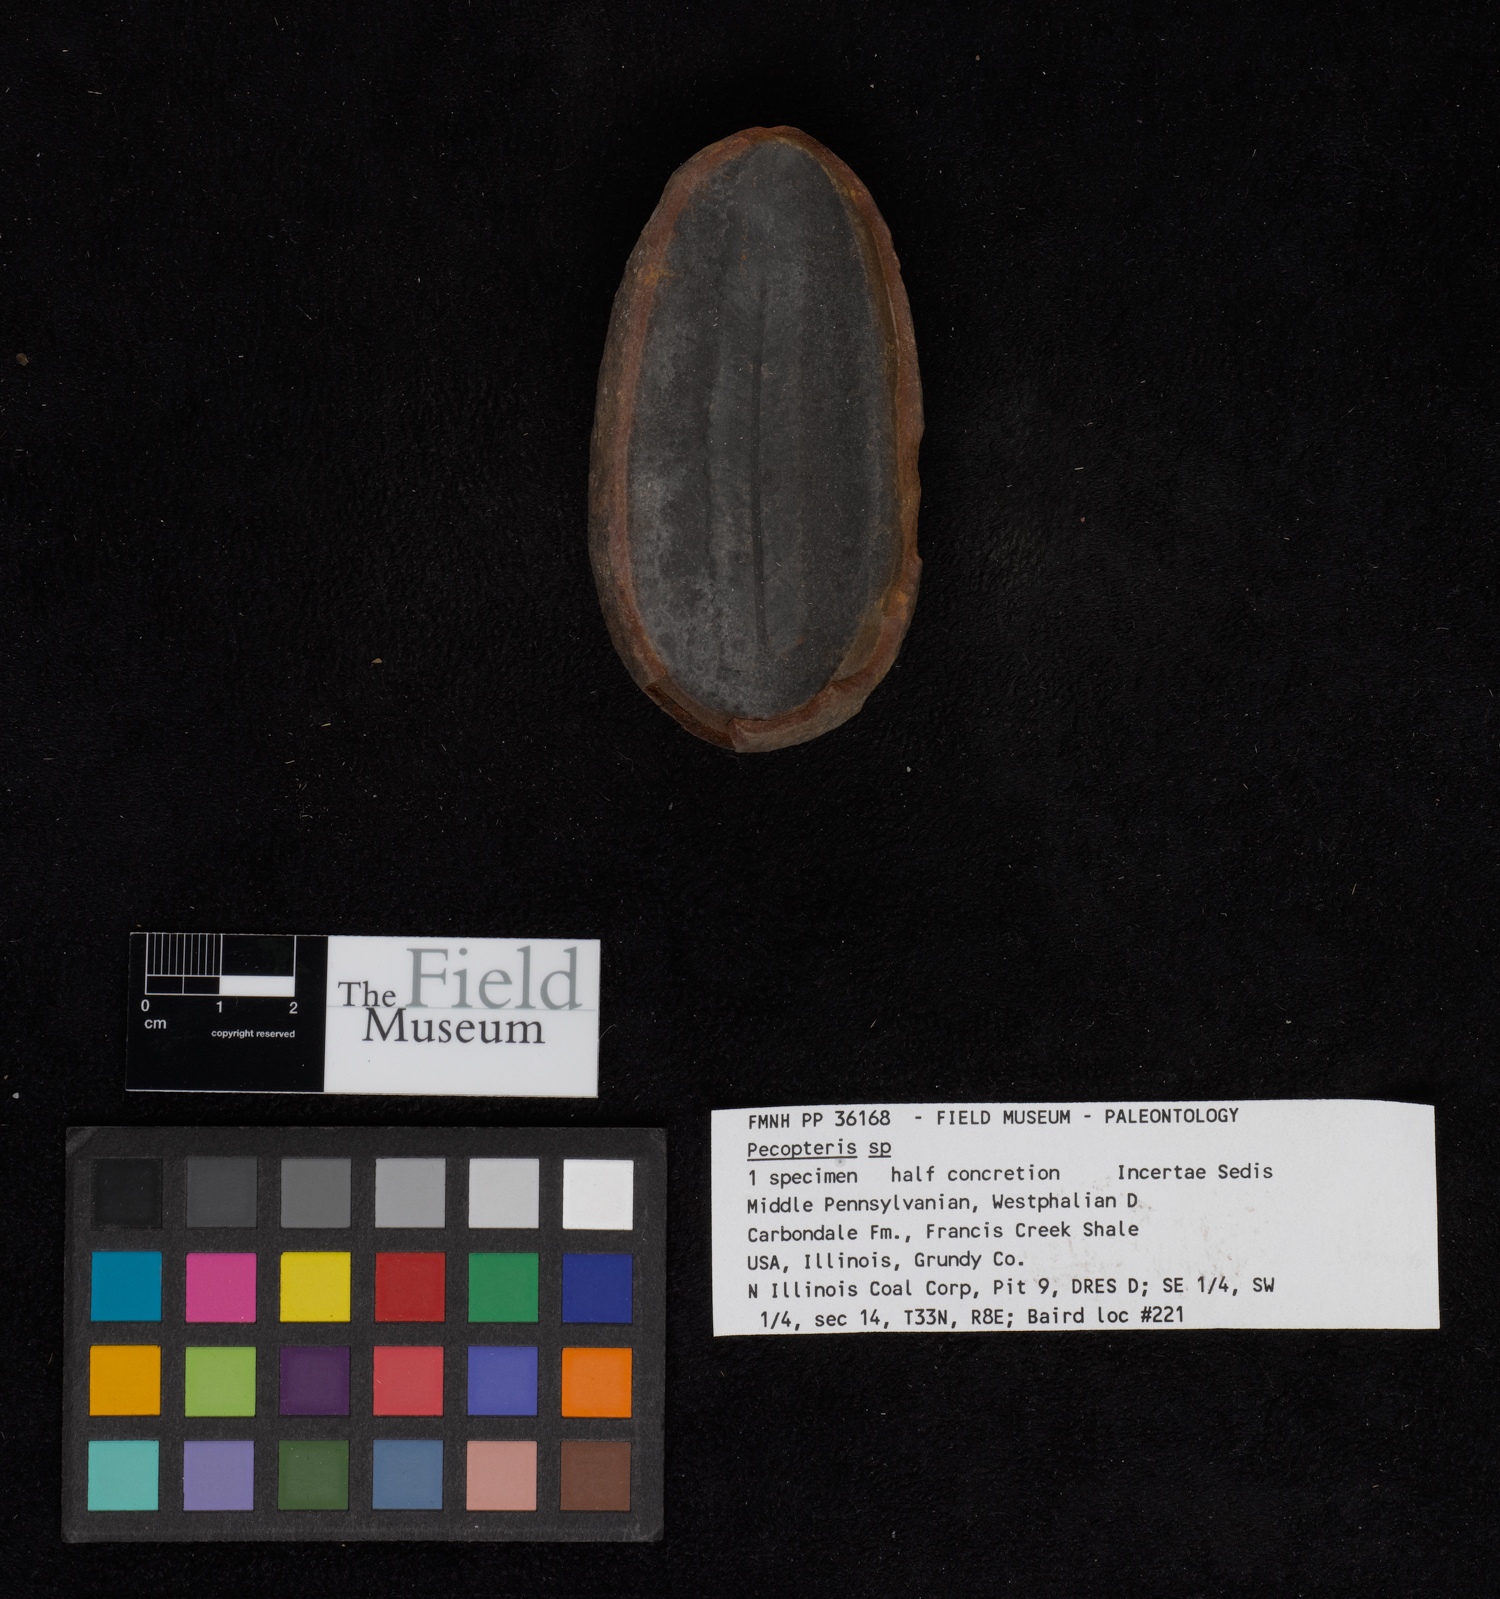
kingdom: Plantae
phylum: Tracheophyta
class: Polypodiopsida
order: Marattiales
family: Asterothecaceae
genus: Pecopteris
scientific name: Pecopteris
